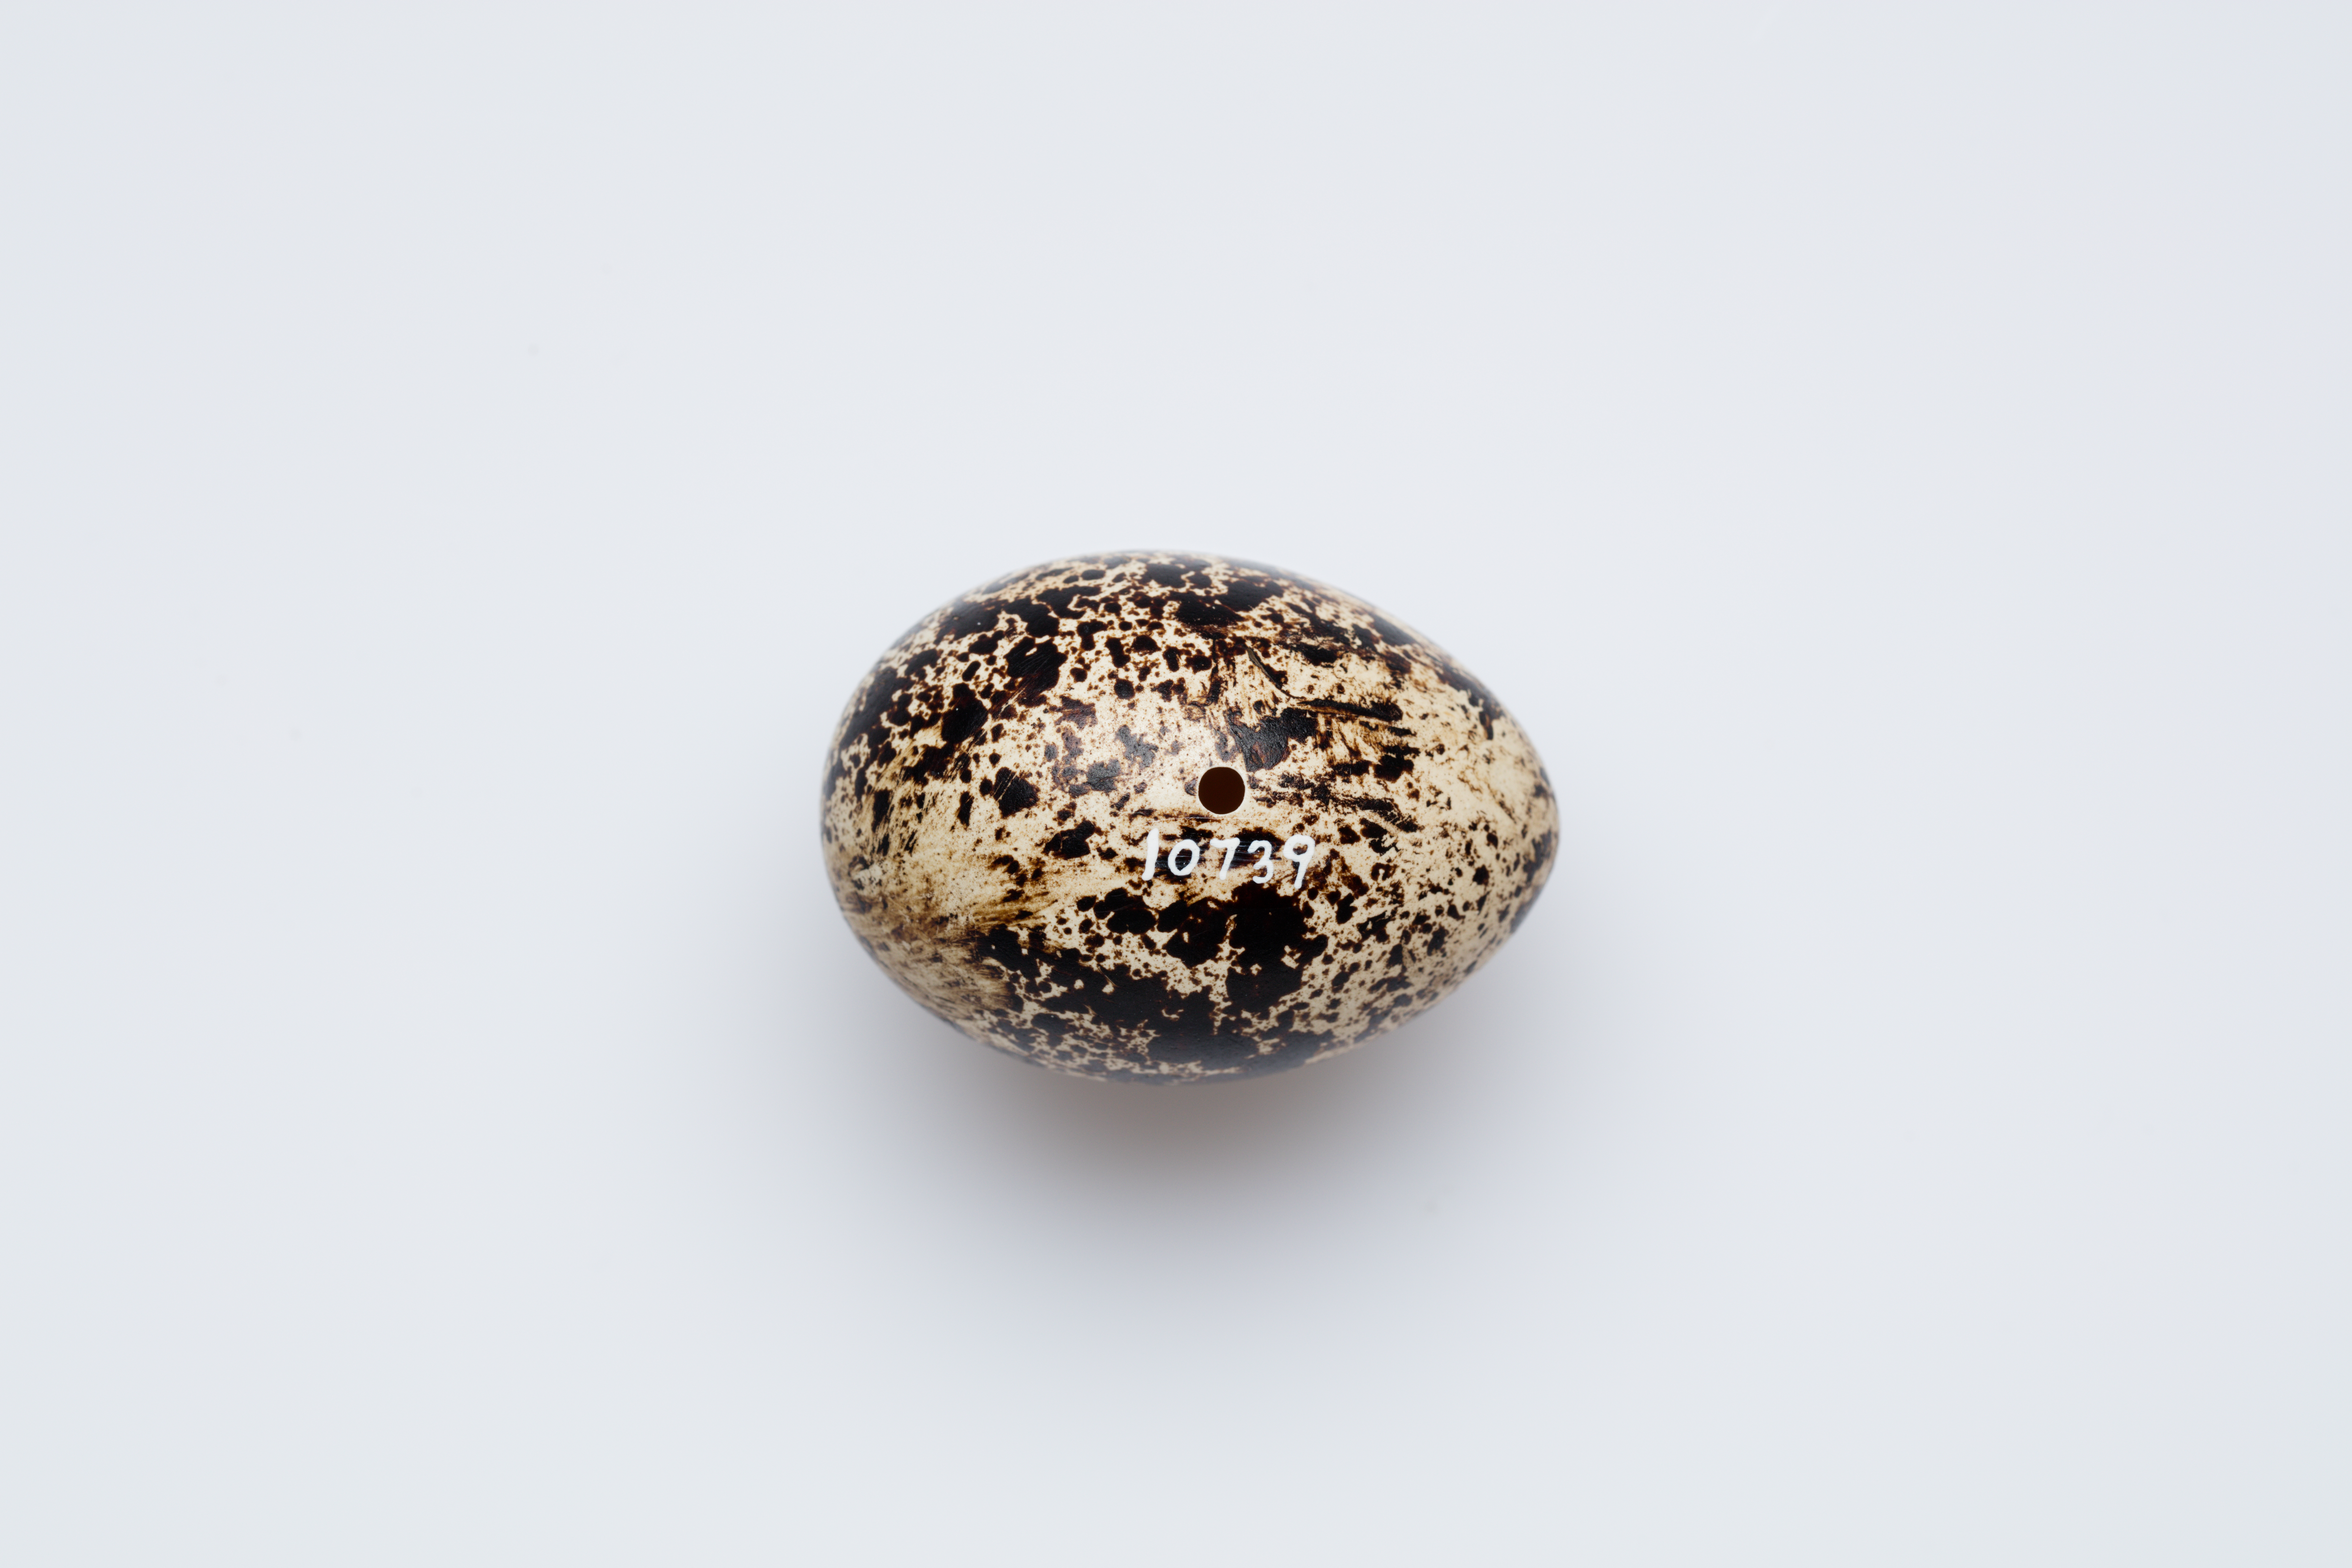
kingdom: Animalia
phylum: Chordata
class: Aves
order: Galliformes
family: Phasianidae
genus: Lagopus
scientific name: Lagopus lagopus
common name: Willow ptarmigan
